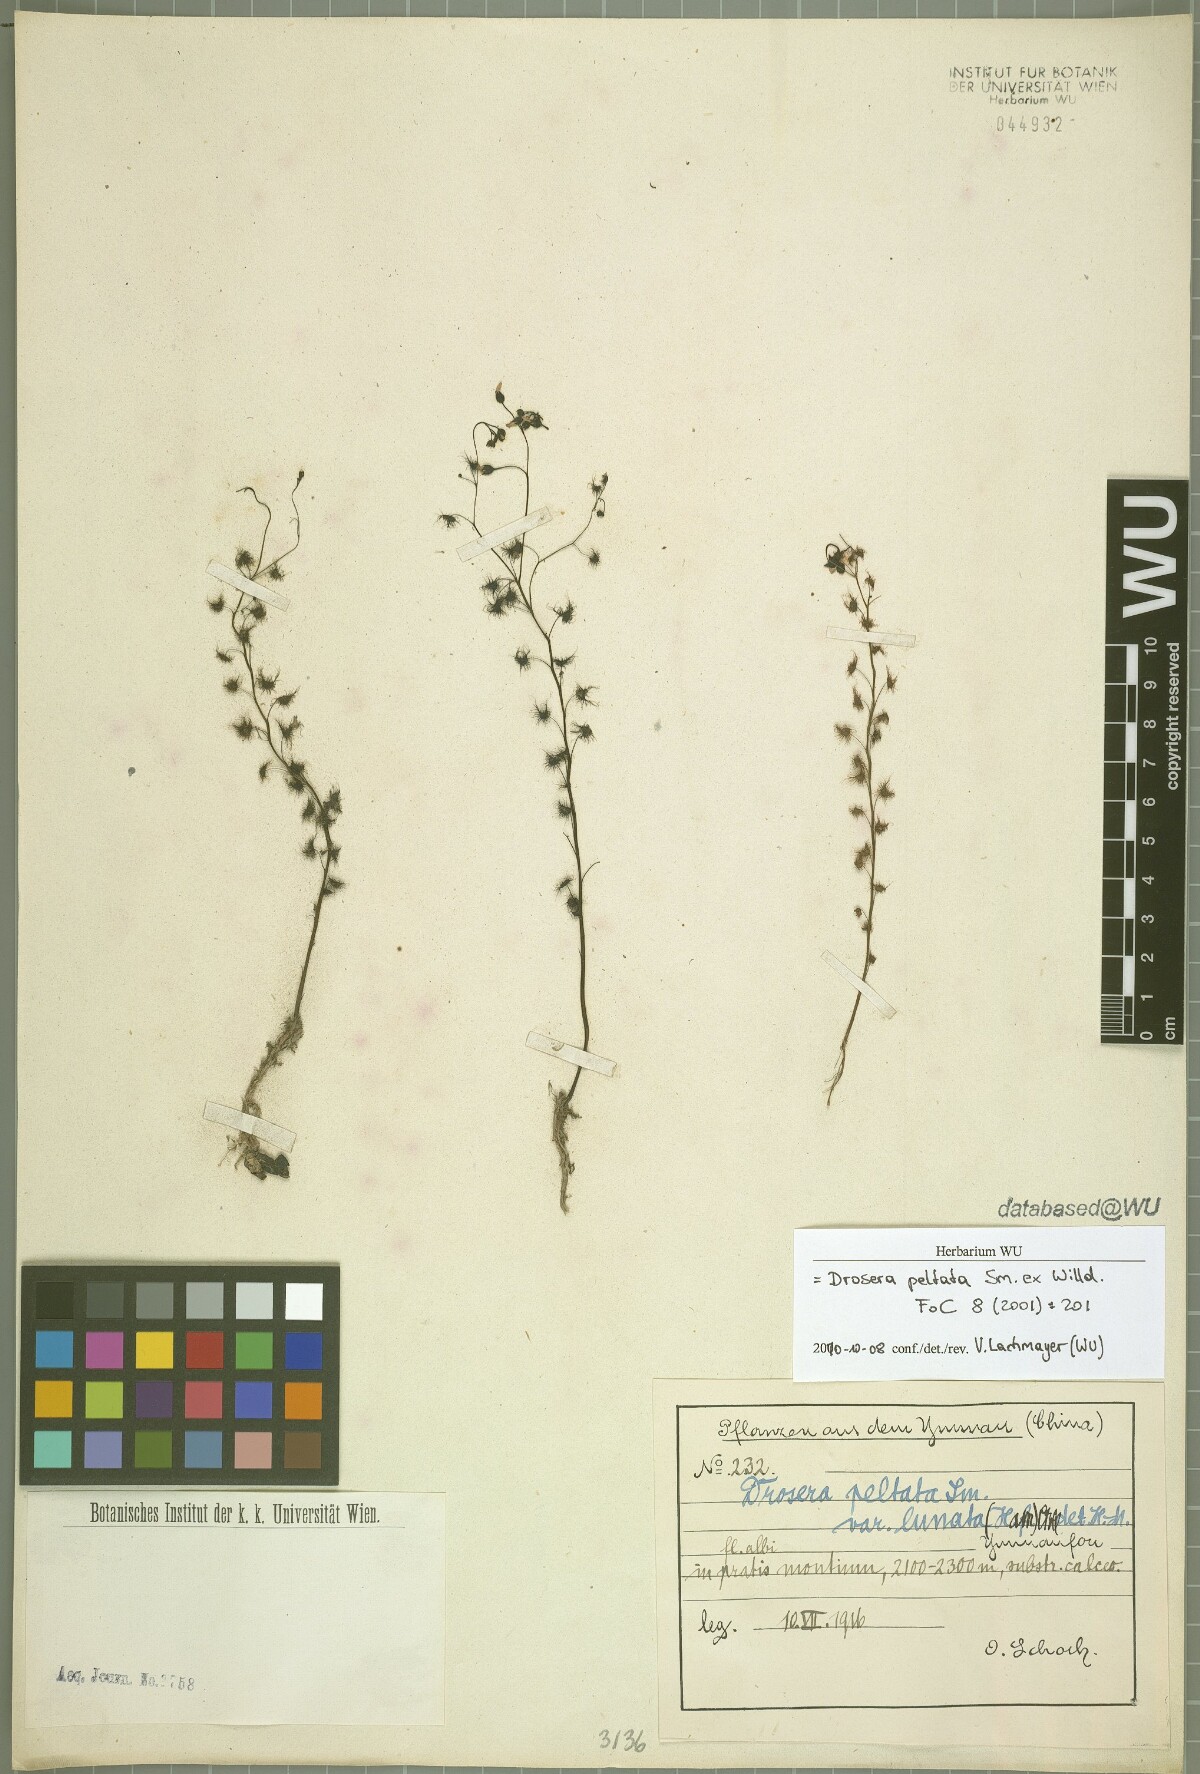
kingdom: Plantae
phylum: Tracheophyta
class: Magnoliopsida
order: Caryophyllales
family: Droseraceae
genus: Drosera
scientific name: Drosera peltata
